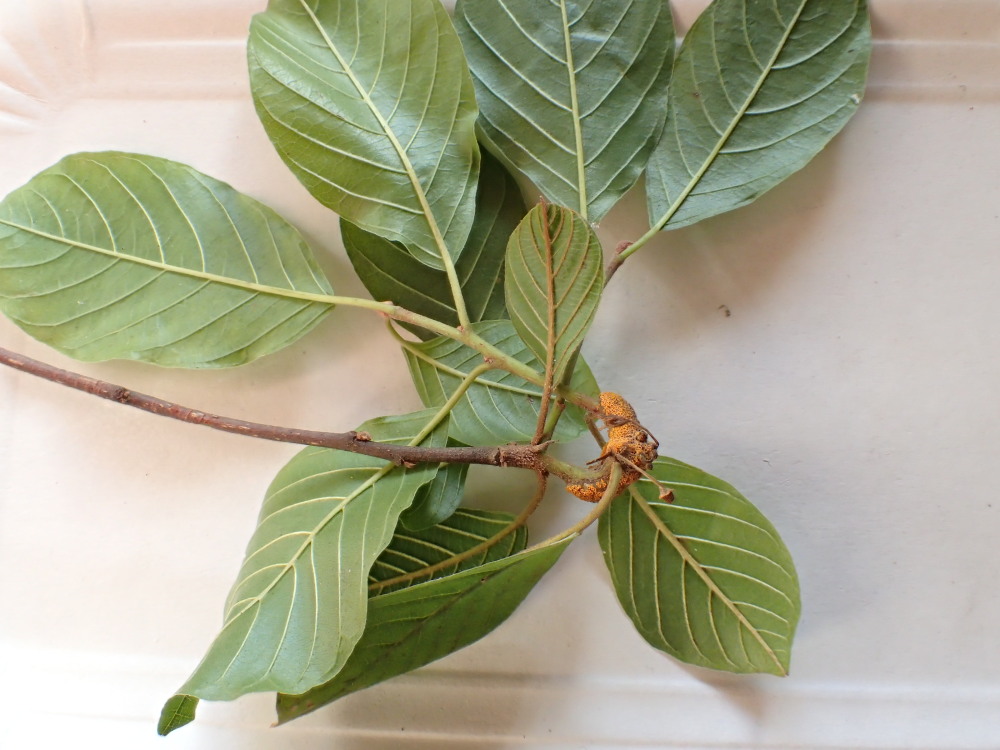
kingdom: Fungi
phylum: Basidiomycota
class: Pucciniomycetes
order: Pucciniales
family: Pucciniaceae
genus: Puccinia
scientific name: Puccinia coronata
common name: Crown rust
